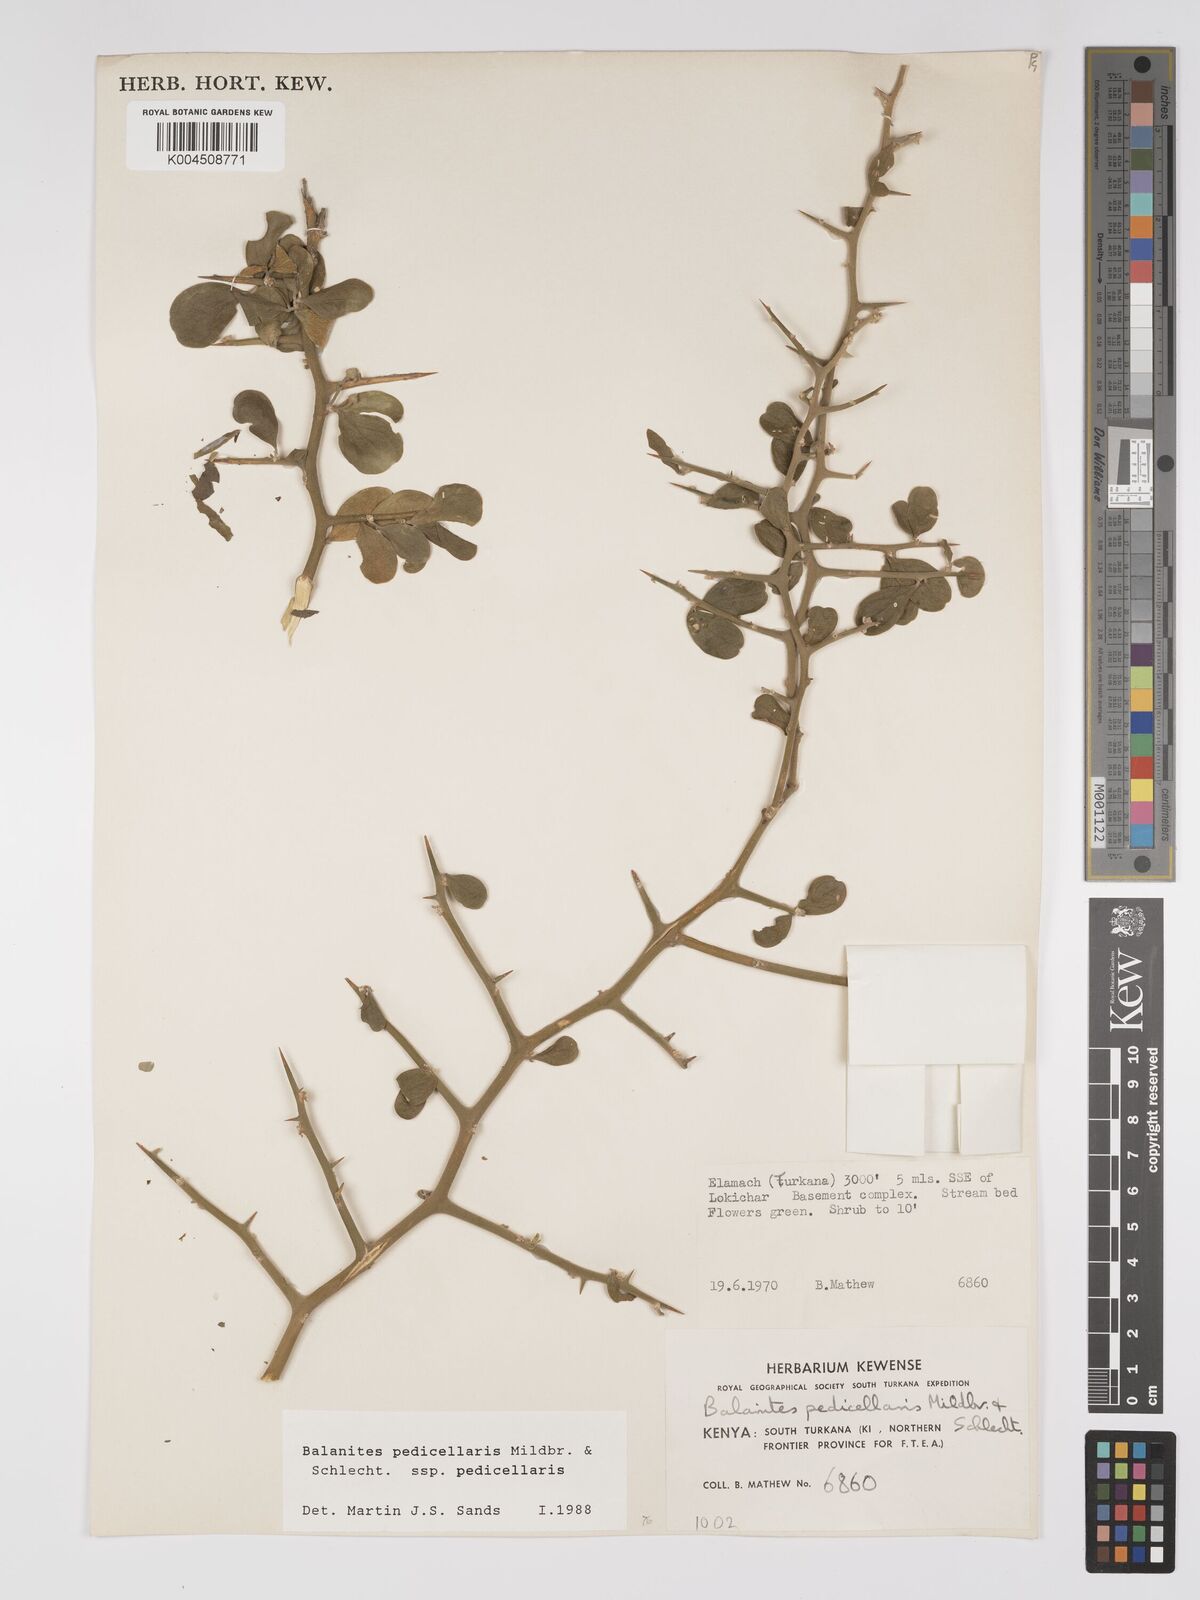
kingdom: Plantae
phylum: Tracheophyta
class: Magnoliopsida
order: Zygophyllales
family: Zygophyllaceae
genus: Balanites
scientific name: Balanites pedicellaris
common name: Small green-thorn
